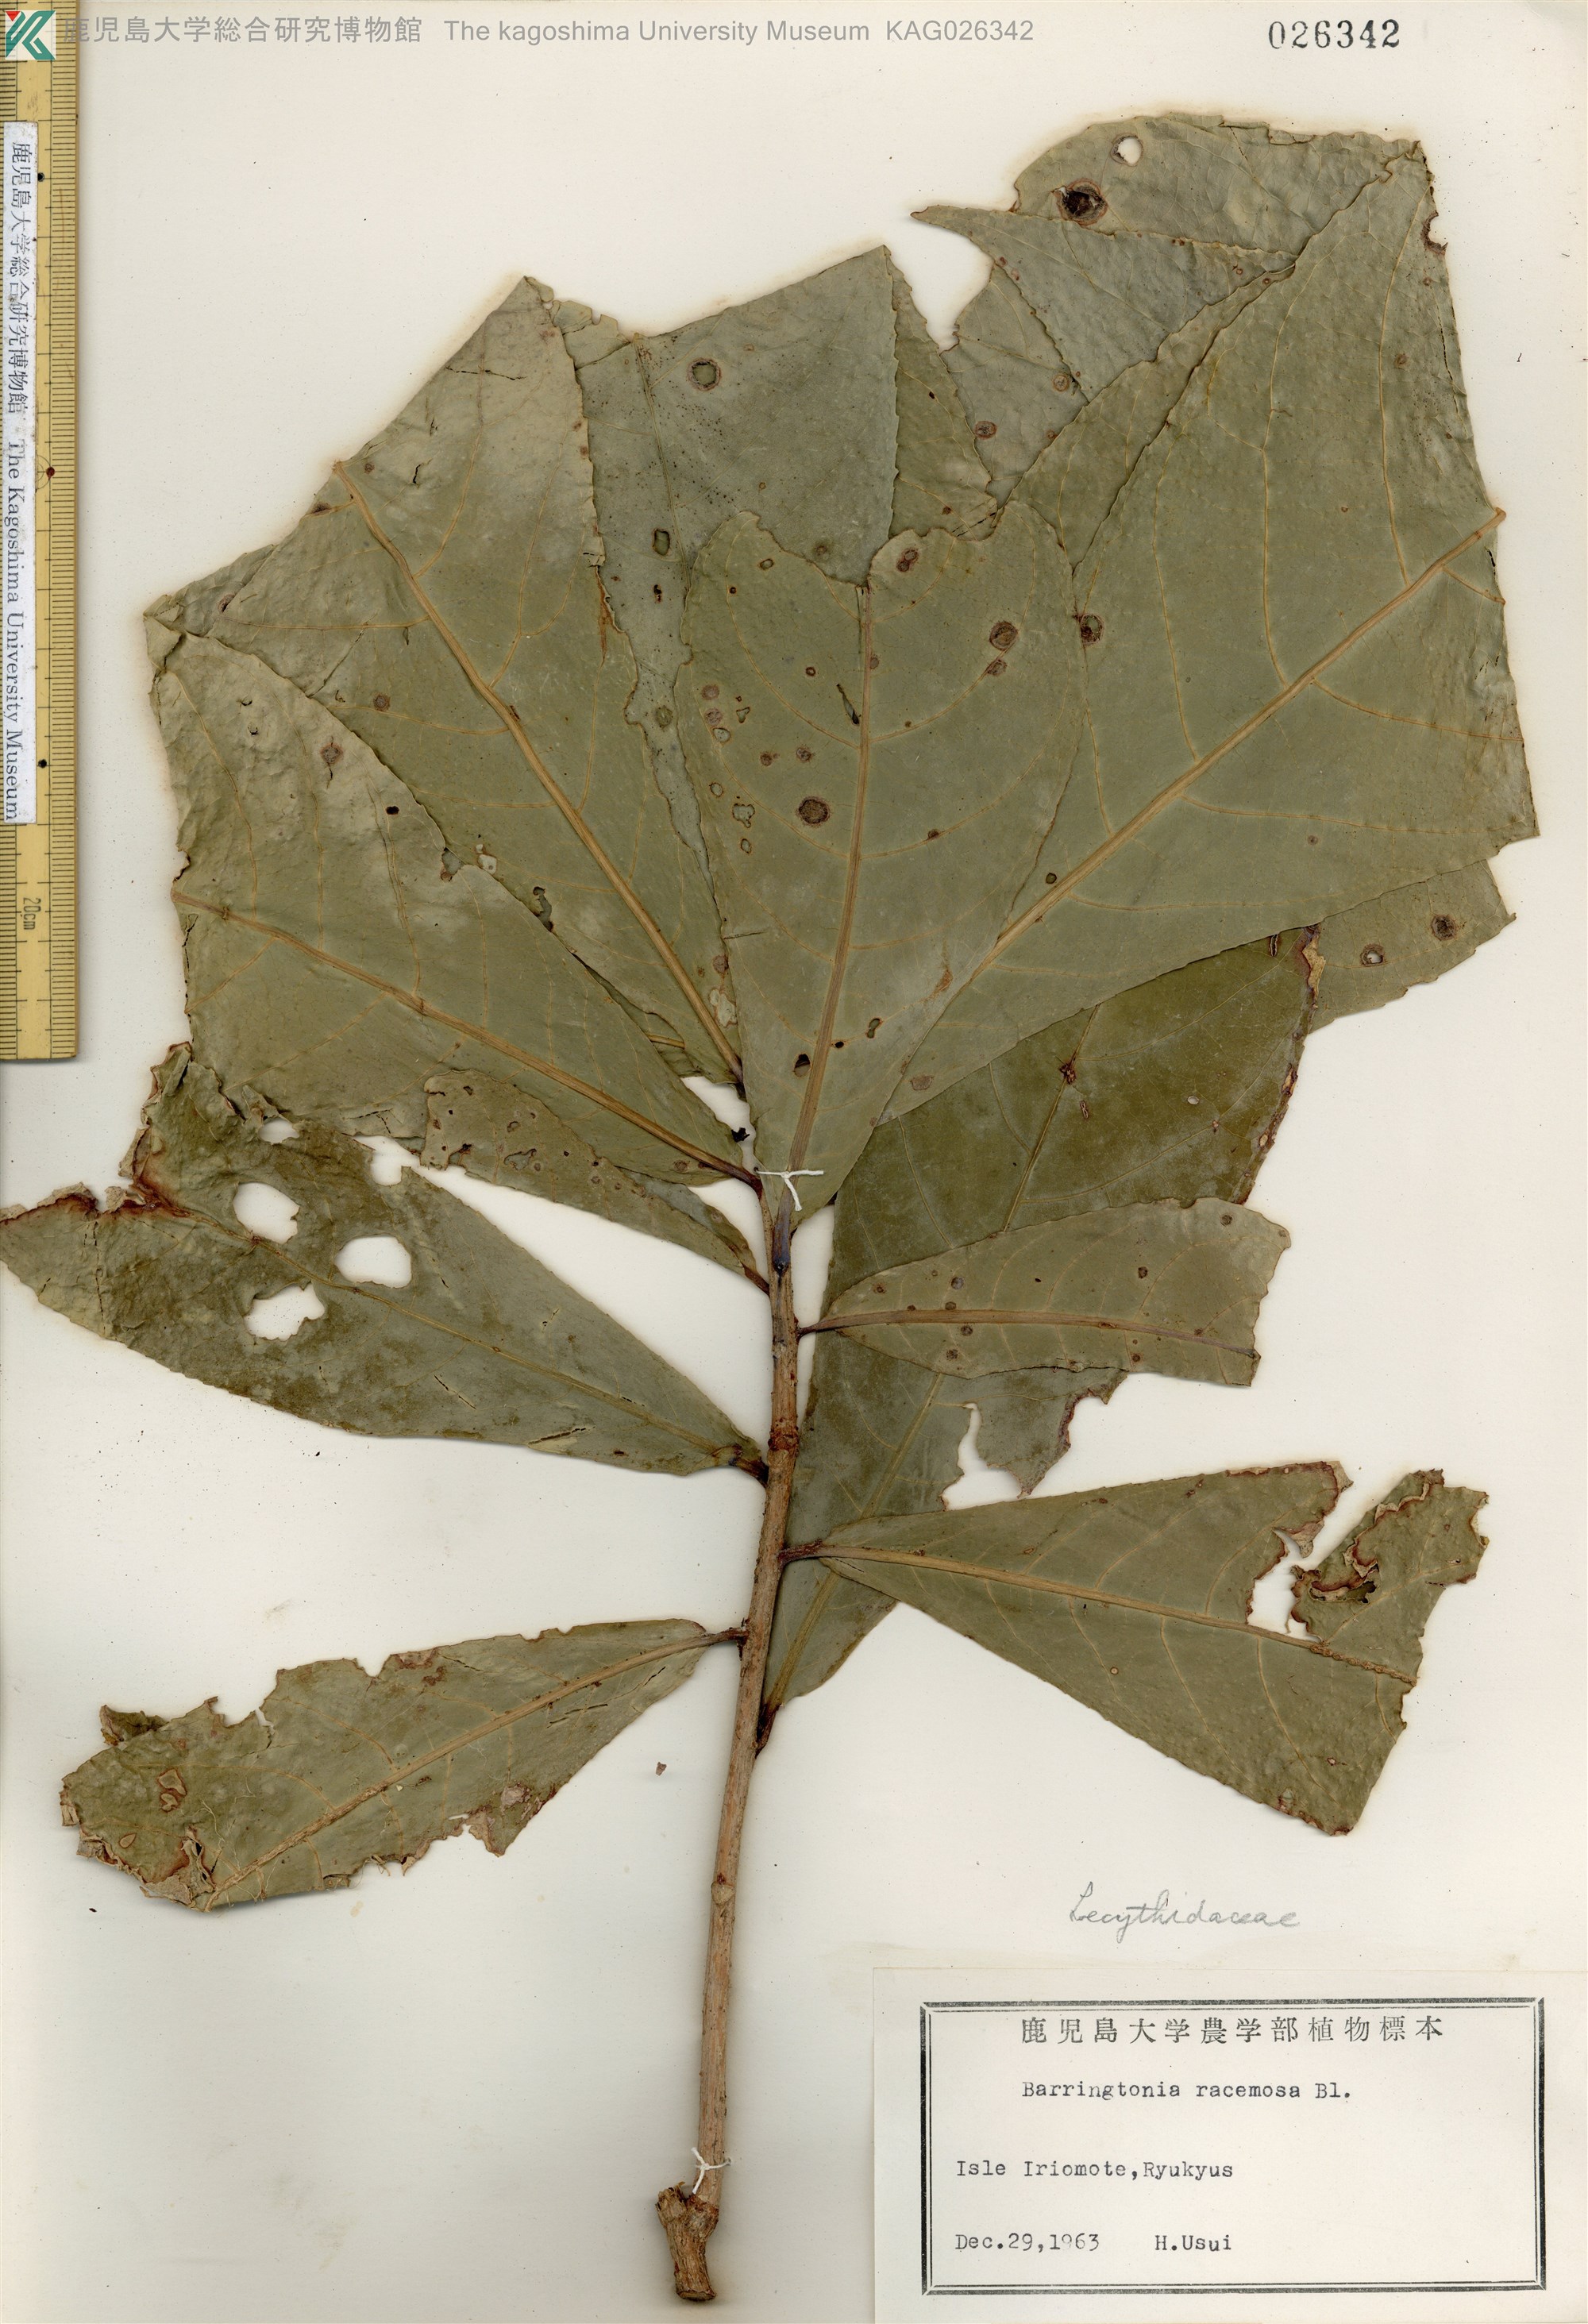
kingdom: Plantae
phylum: Tracheophyta
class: Magnoliopsida
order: Ericales
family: Lecythidaceae
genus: Barringtonia
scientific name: Barringtonia racemosa
